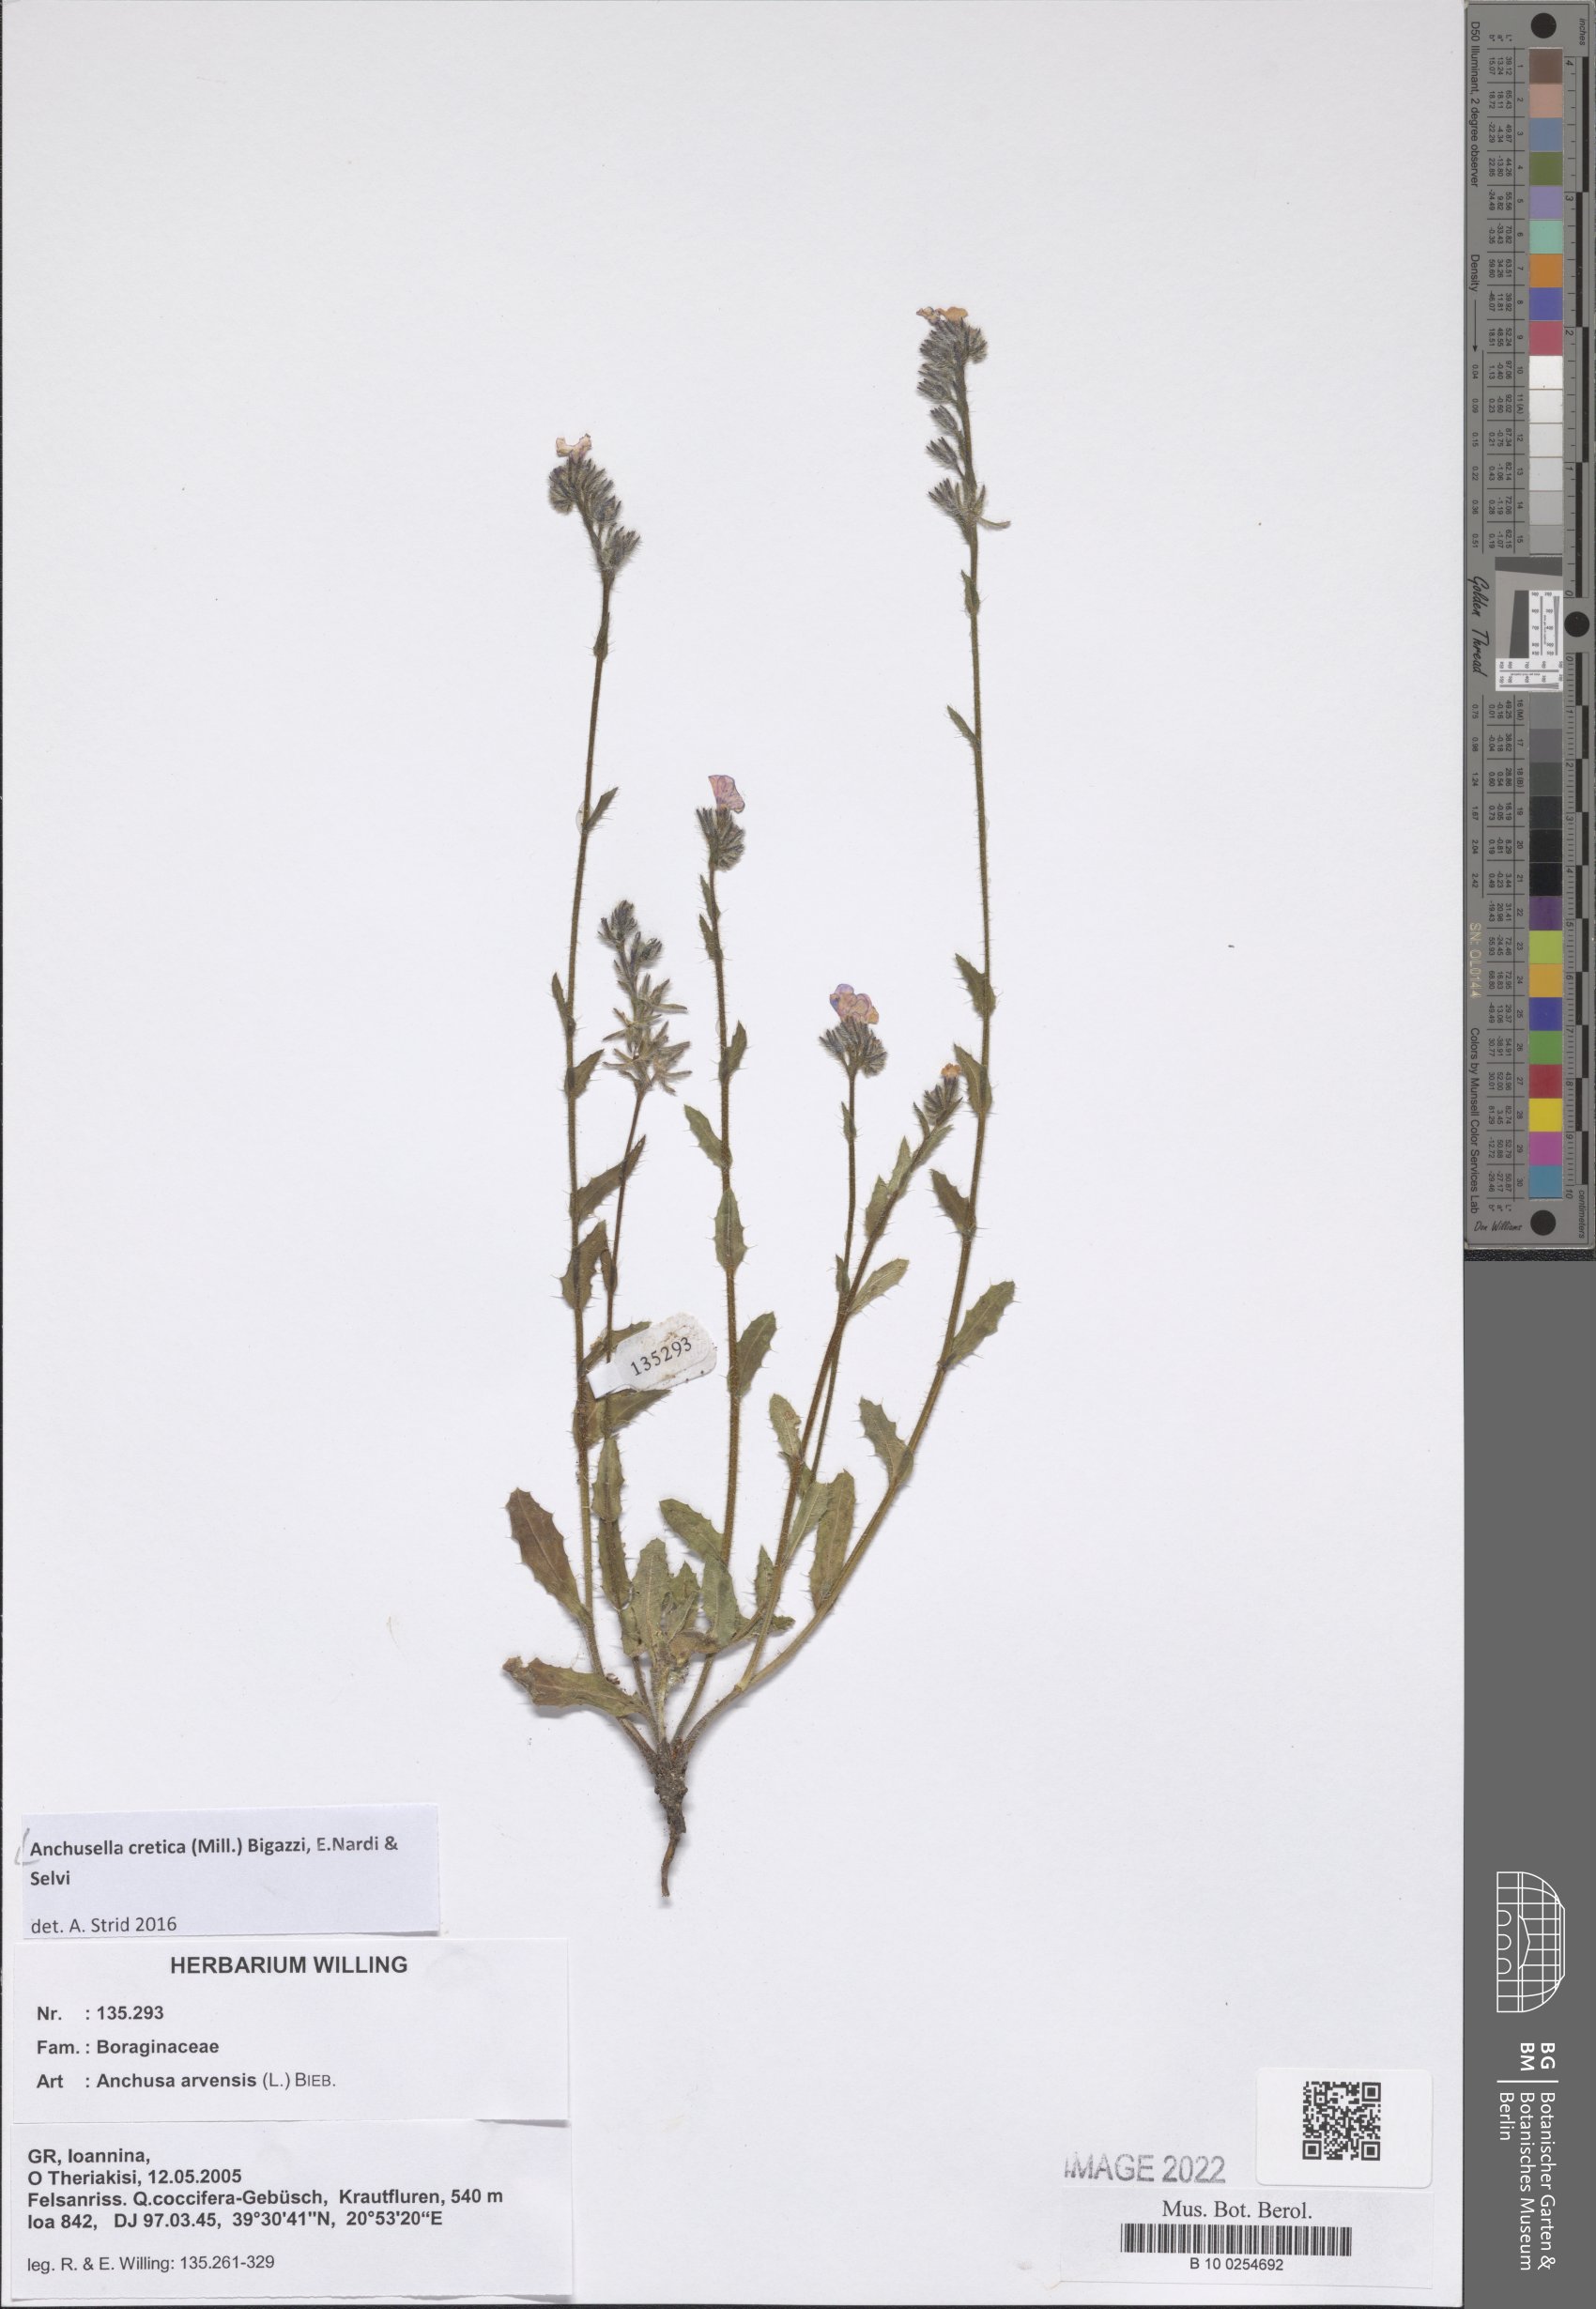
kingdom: Plantae
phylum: Tracheophyta
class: Magnoliopsida
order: Boraginales
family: Boraginaceae
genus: Anchusella
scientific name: Anchusella cretica
